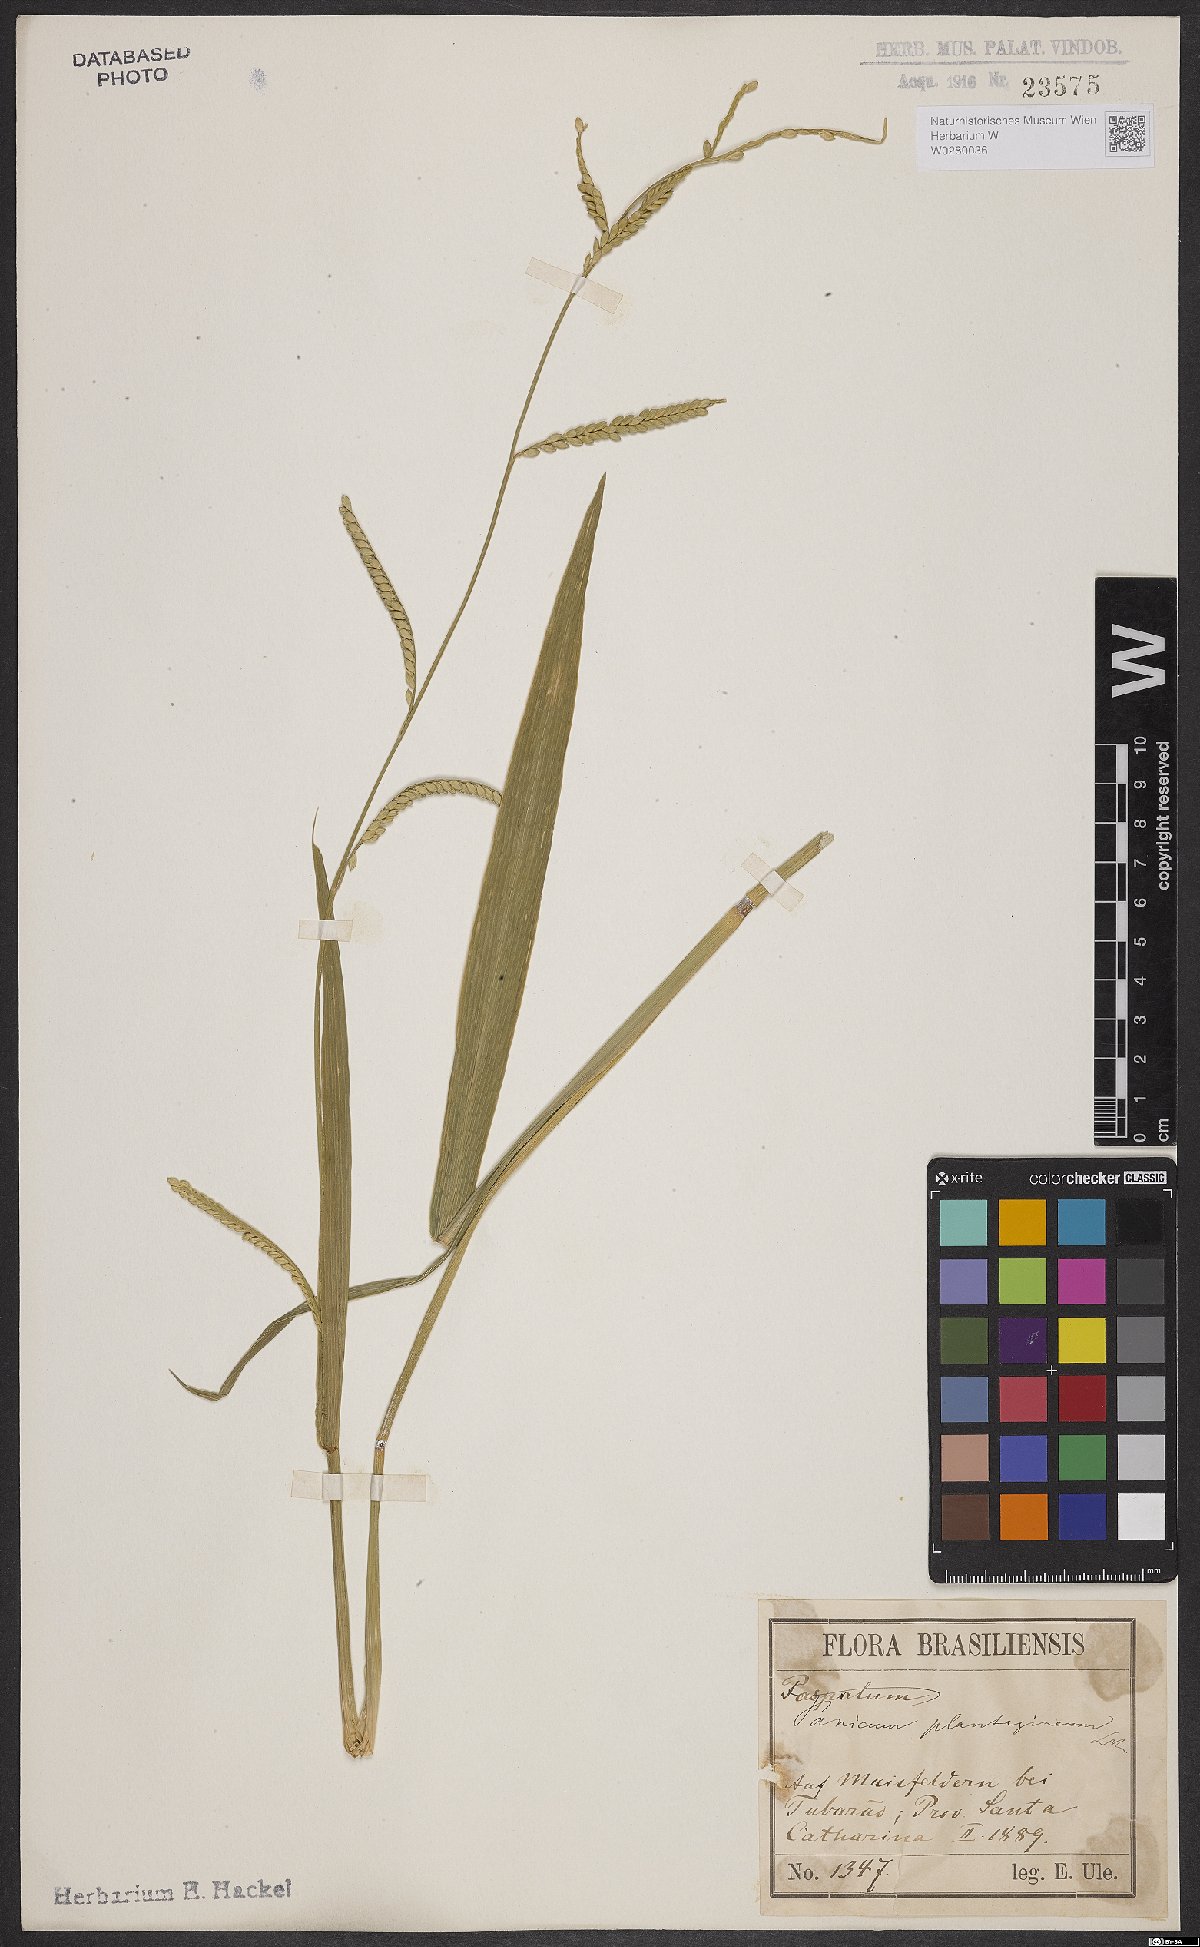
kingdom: Plantae
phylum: Tracheophyta
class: Liliopsida
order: Poales
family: Poaceae
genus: Urochloa
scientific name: Urochloa plantaginea
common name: Plantain signalgrass
